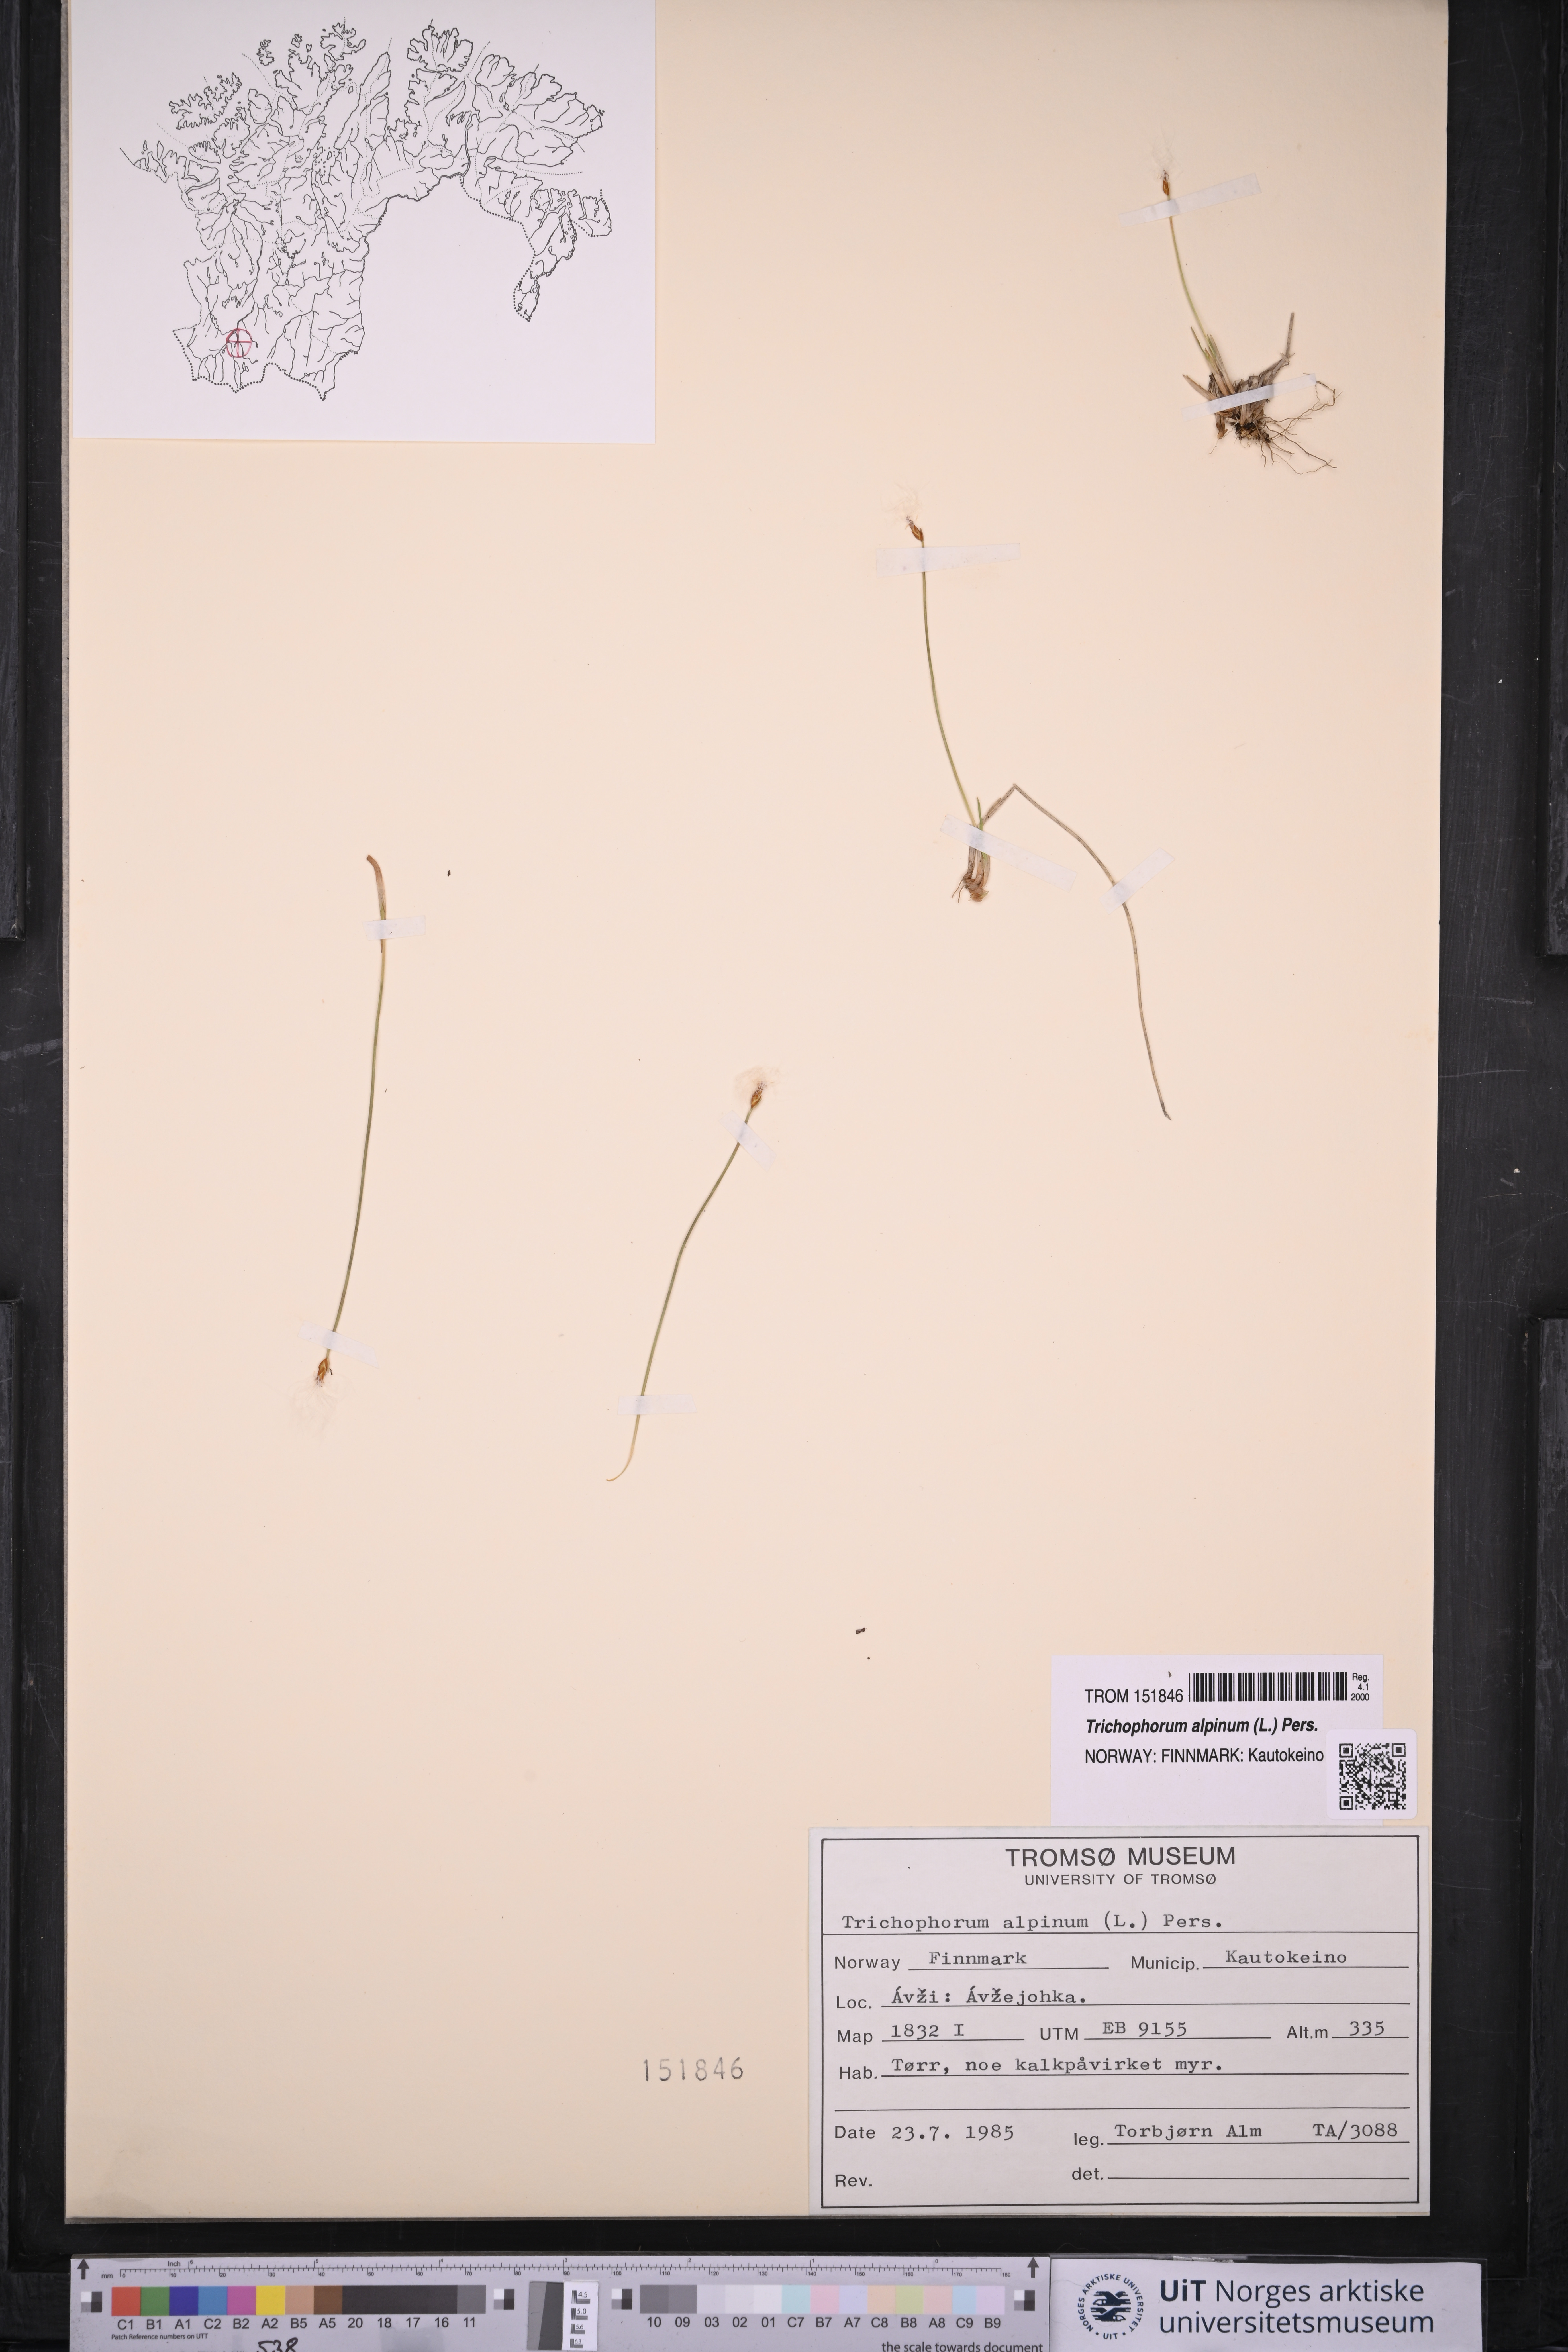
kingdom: Plantae
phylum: Tracheophyta
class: Liliopsida
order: Poales
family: Cyperaceae
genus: Trichophorum
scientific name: Trichophorum alpinum
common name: Alpine bulrush
